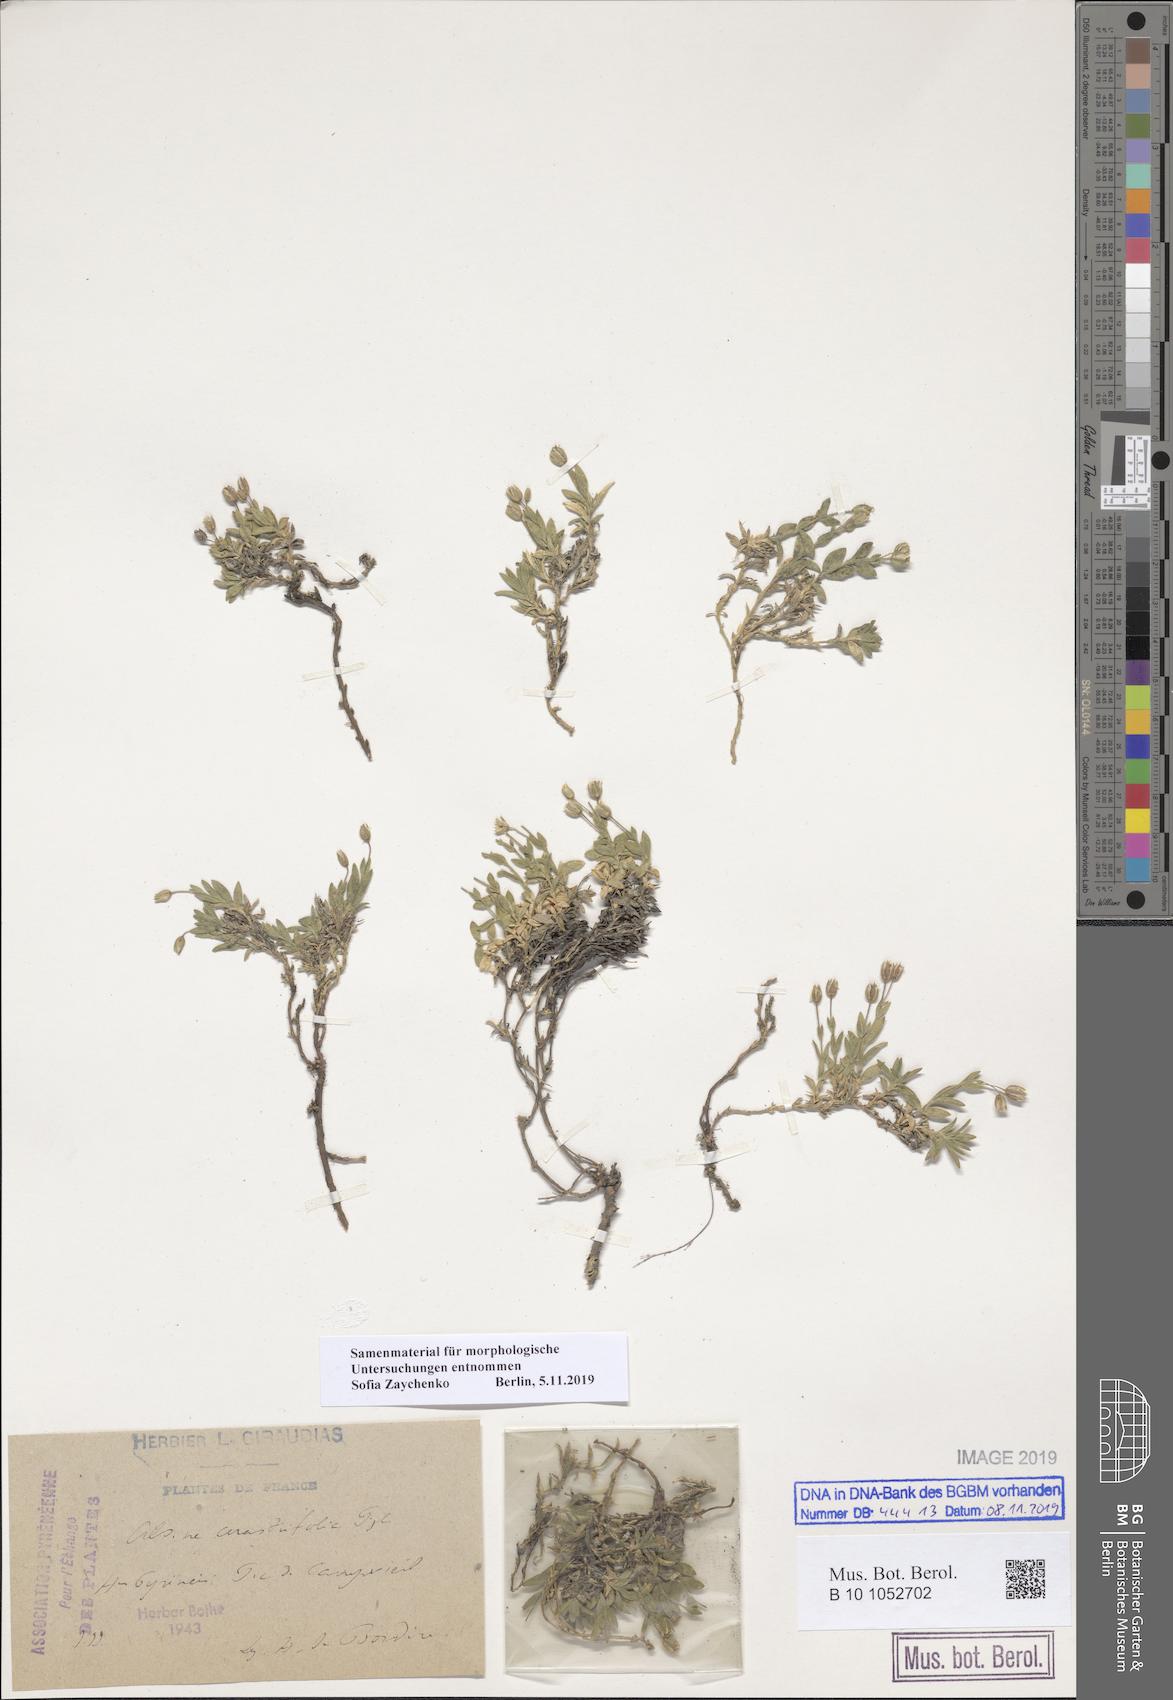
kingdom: Plantae
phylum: Tracheophyta
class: Magnoliopsida
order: Caryophyllales
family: Caryophyllaceae
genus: Facchinia
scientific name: Facchinia cerastiifolia
